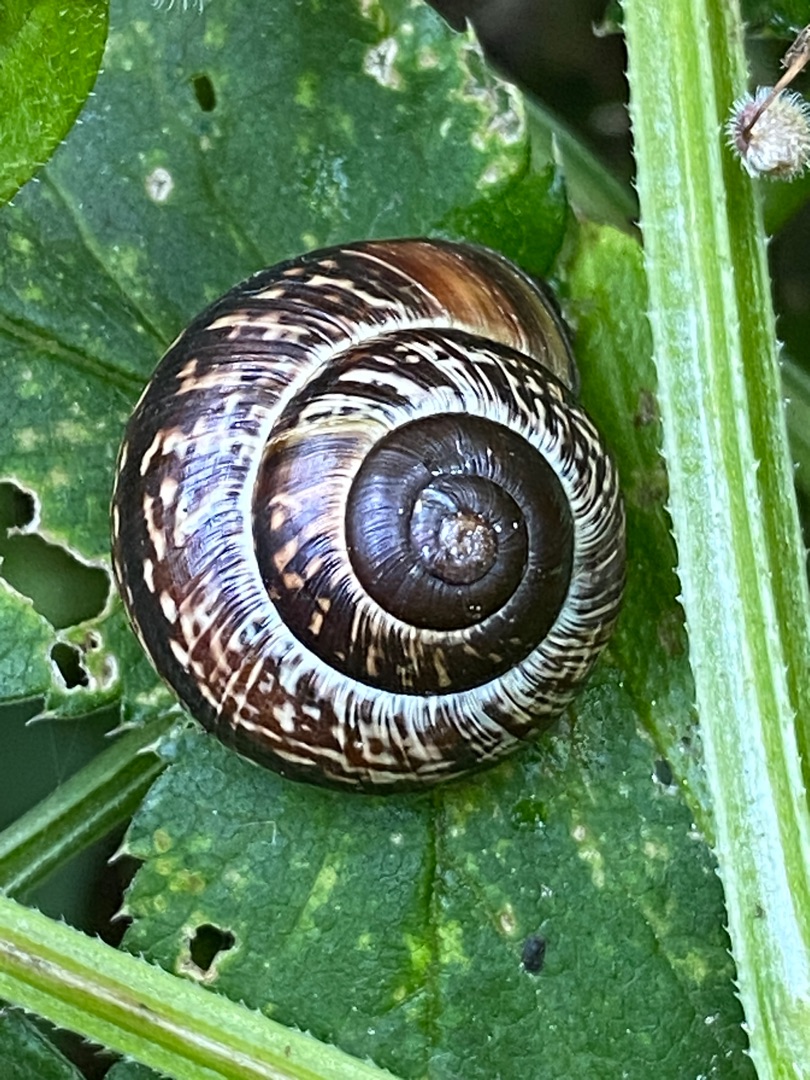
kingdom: Animalia
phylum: Mollusca
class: Gastropoda
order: Stylommatophora
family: Helicidae
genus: Arianta
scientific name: Arianta arbustorum
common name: Kratsnegl
